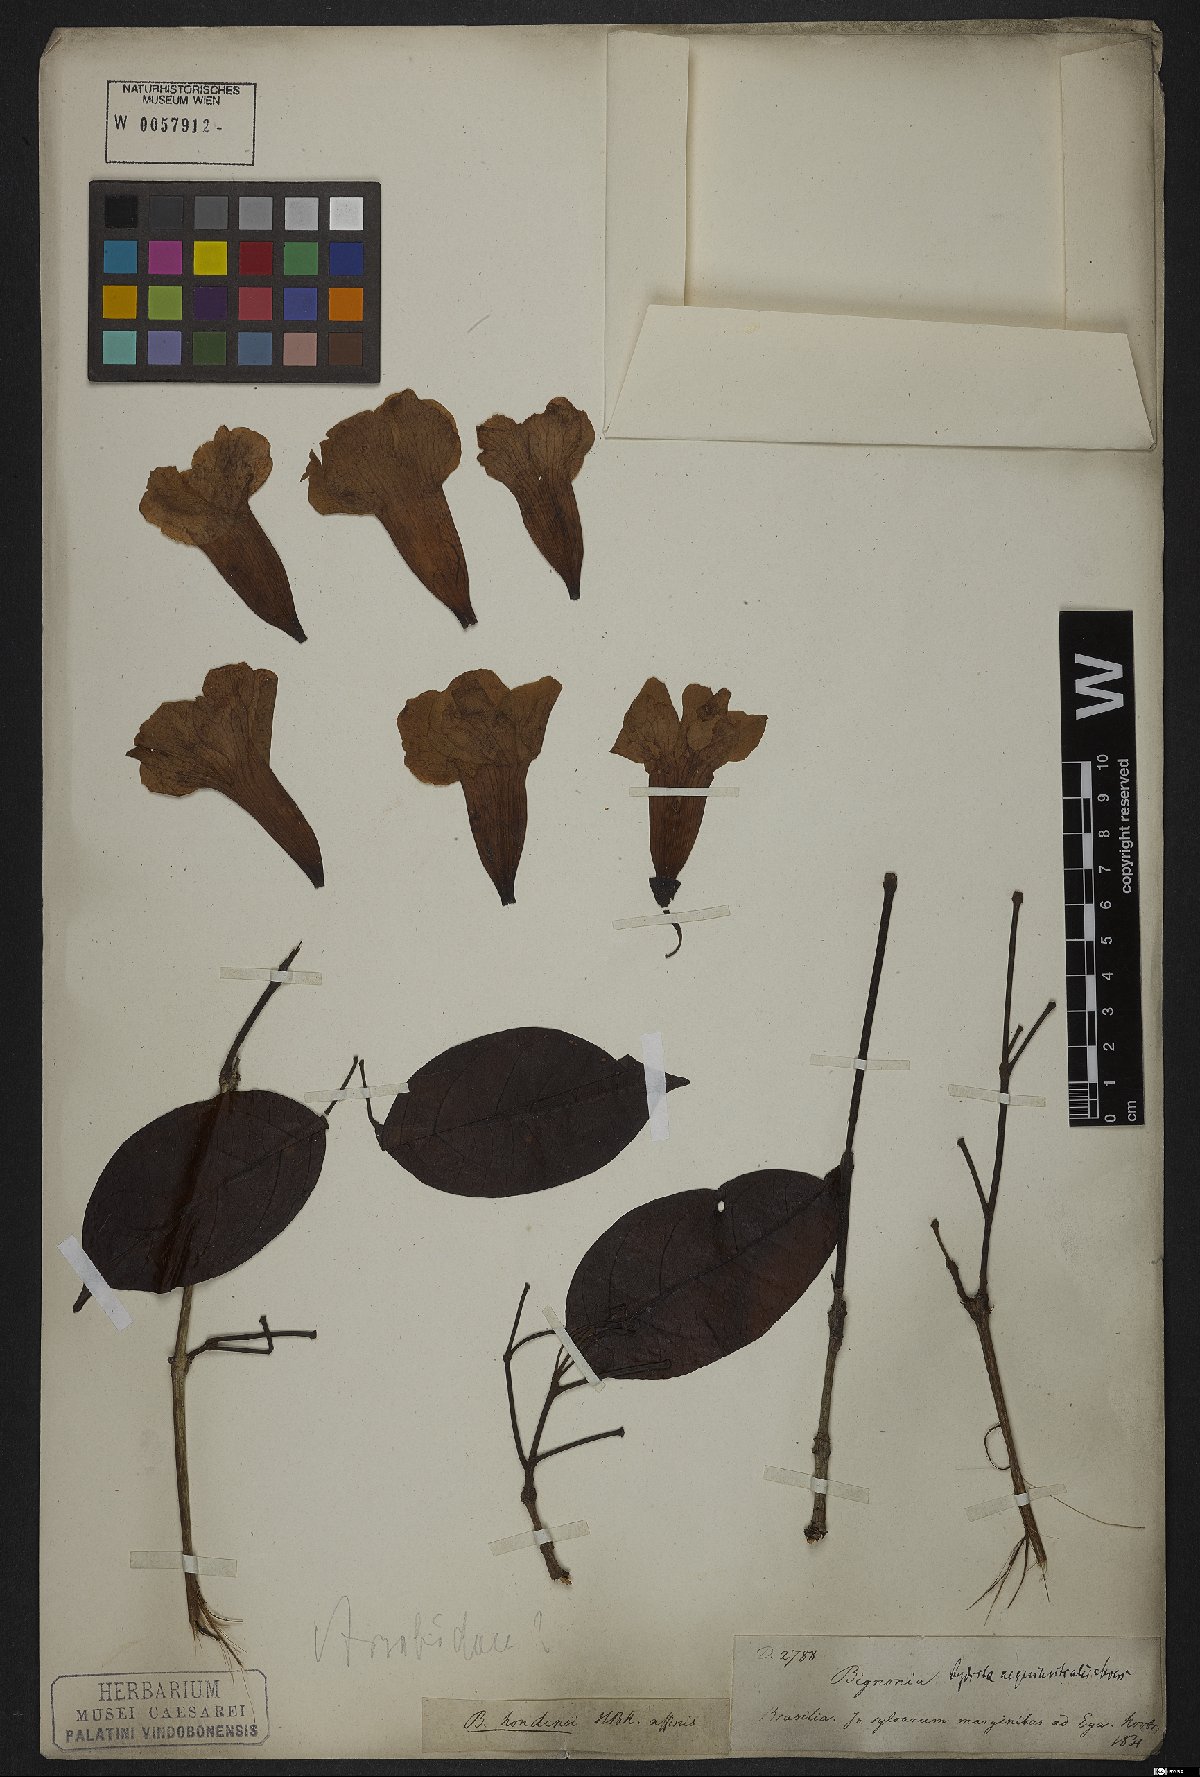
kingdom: Plantae
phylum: Tracheophyta
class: Magnoliopsida
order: Lamiales
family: Bignoniaceae
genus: Bignonia
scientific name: Bignonia aequinoctialis
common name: Garlicvine
